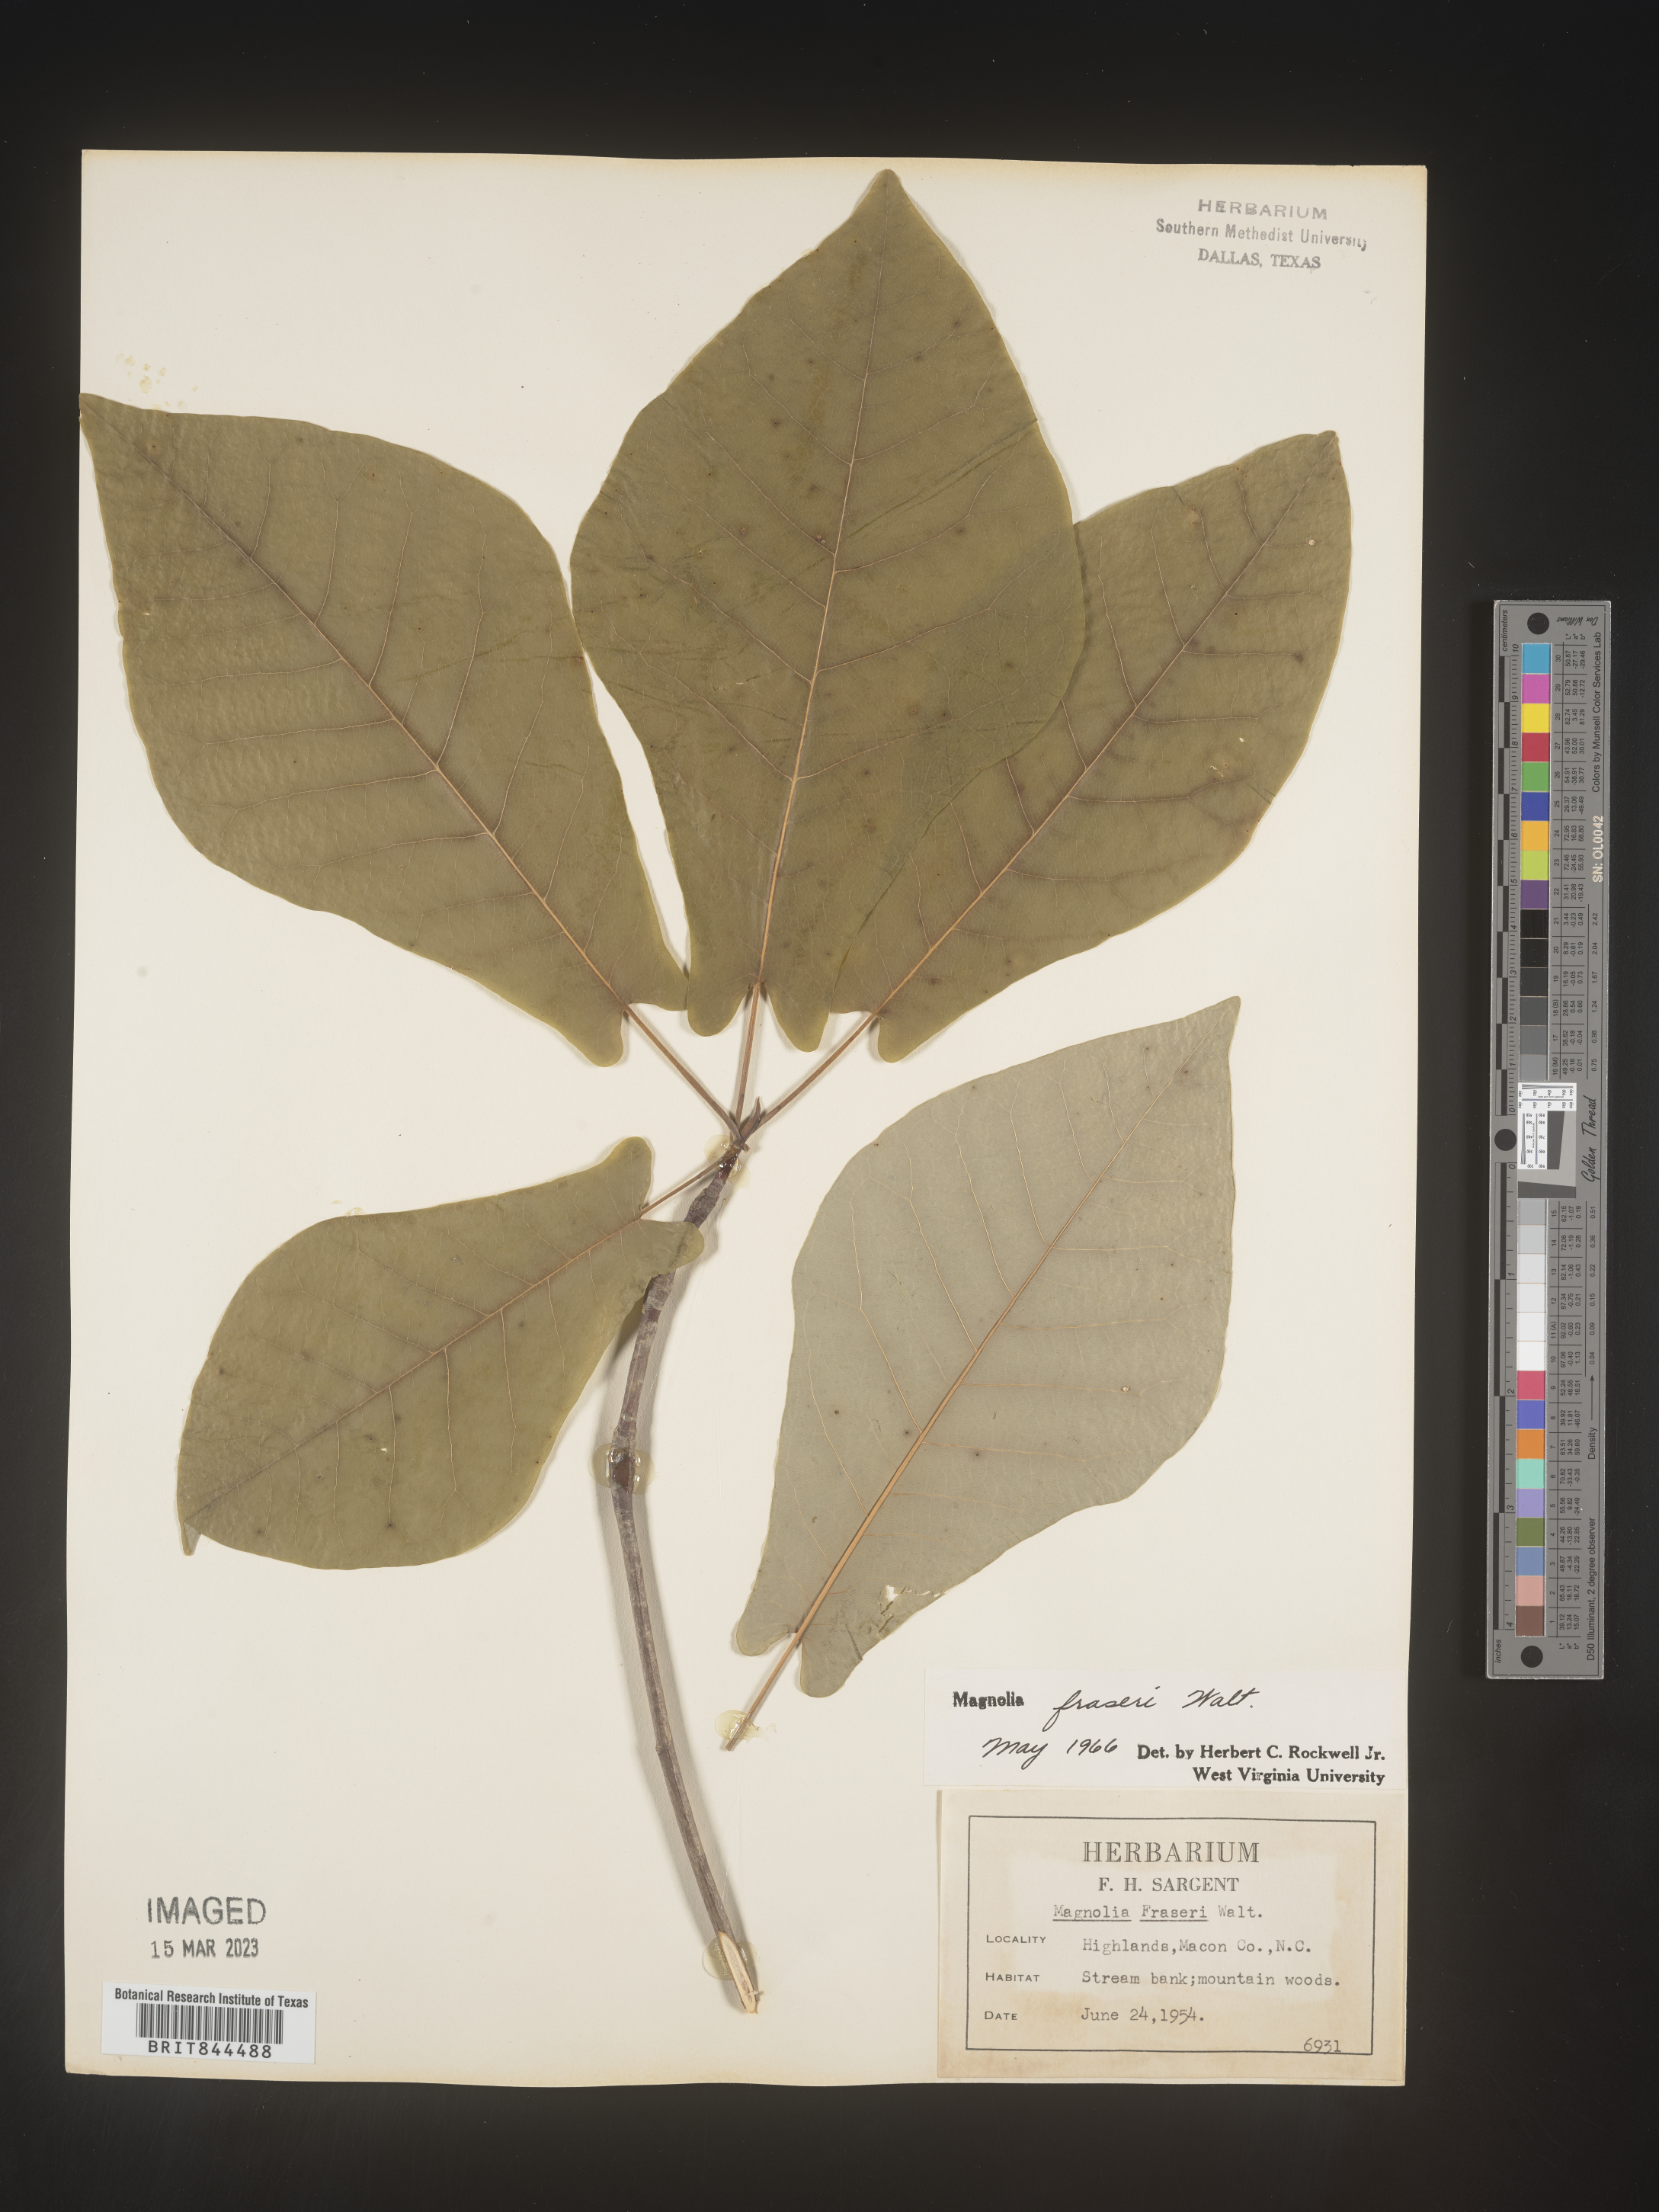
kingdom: Plantae
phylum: Tracheophyta
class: Magnoliopsida
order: Magnoliales
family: Magnoliaceae
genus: Magnolia
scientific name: Magnolia
